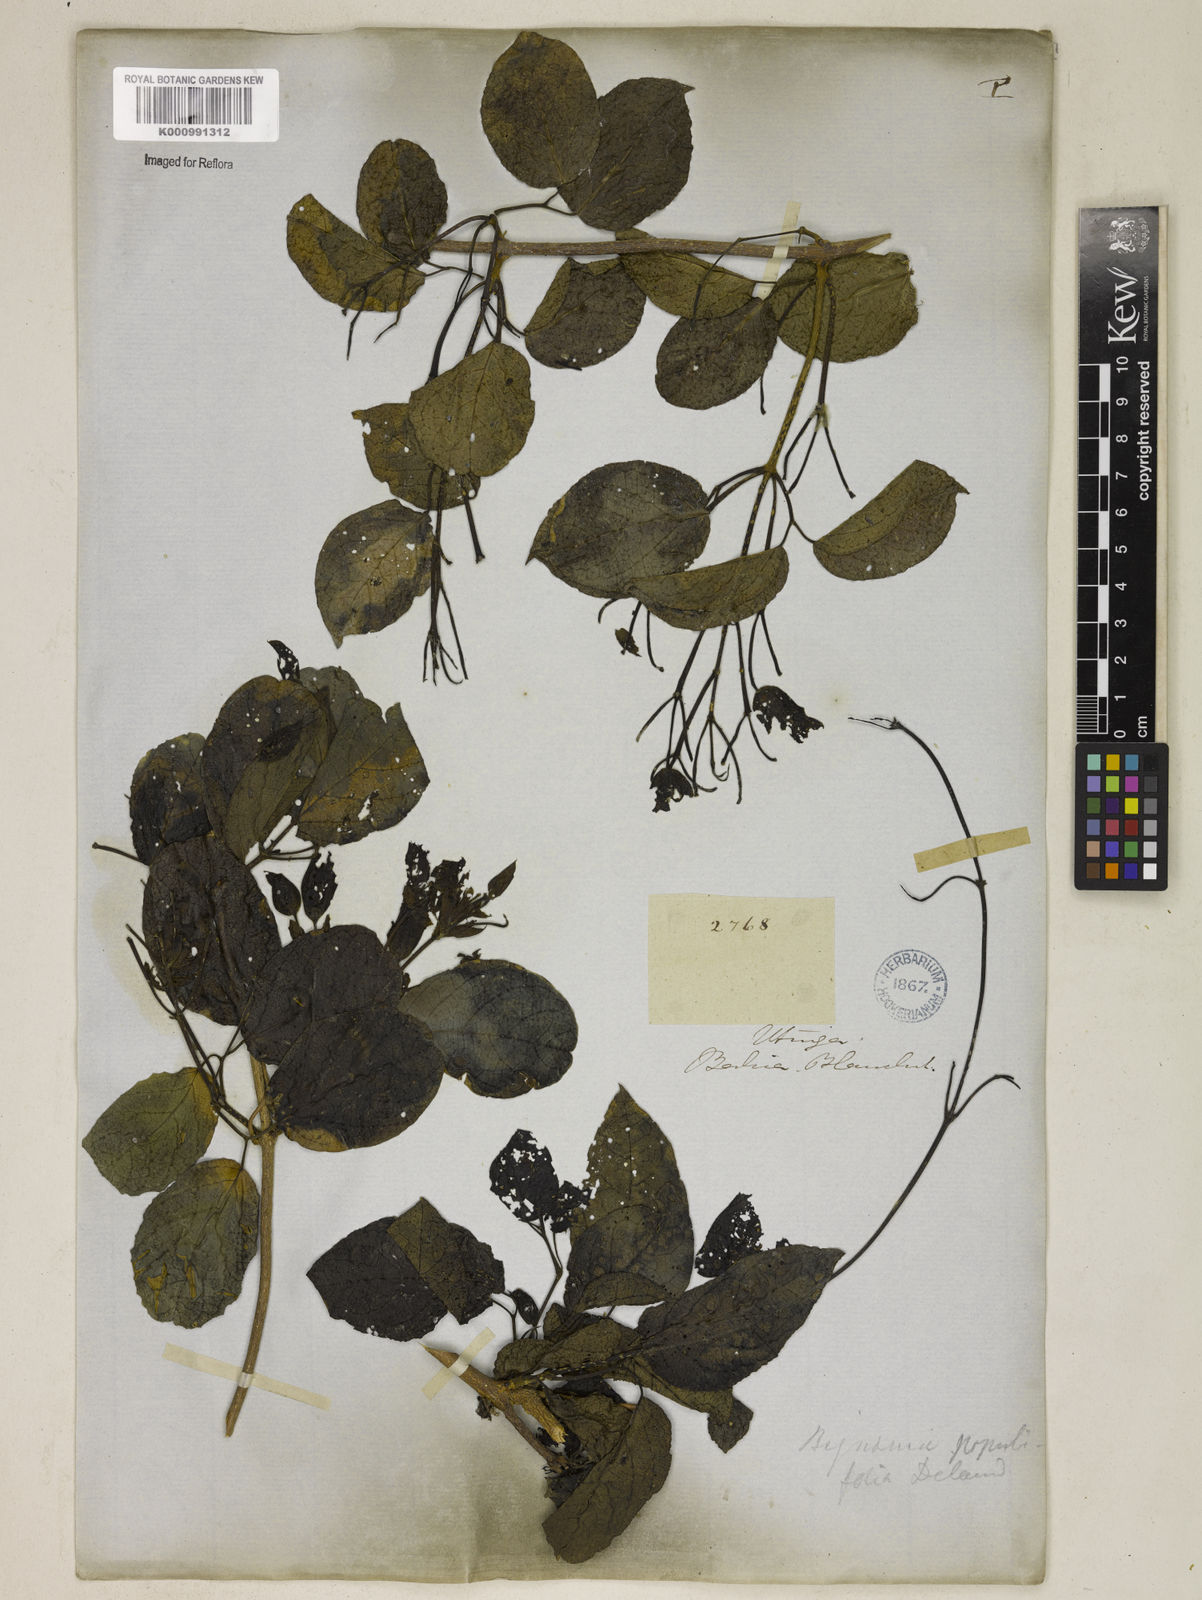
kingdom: Plantae
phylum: Tracheophyta
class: Magnoliopsida
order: Lamiales
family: Bignoniaceae
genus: Dolichandra
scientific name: Dolichandra
